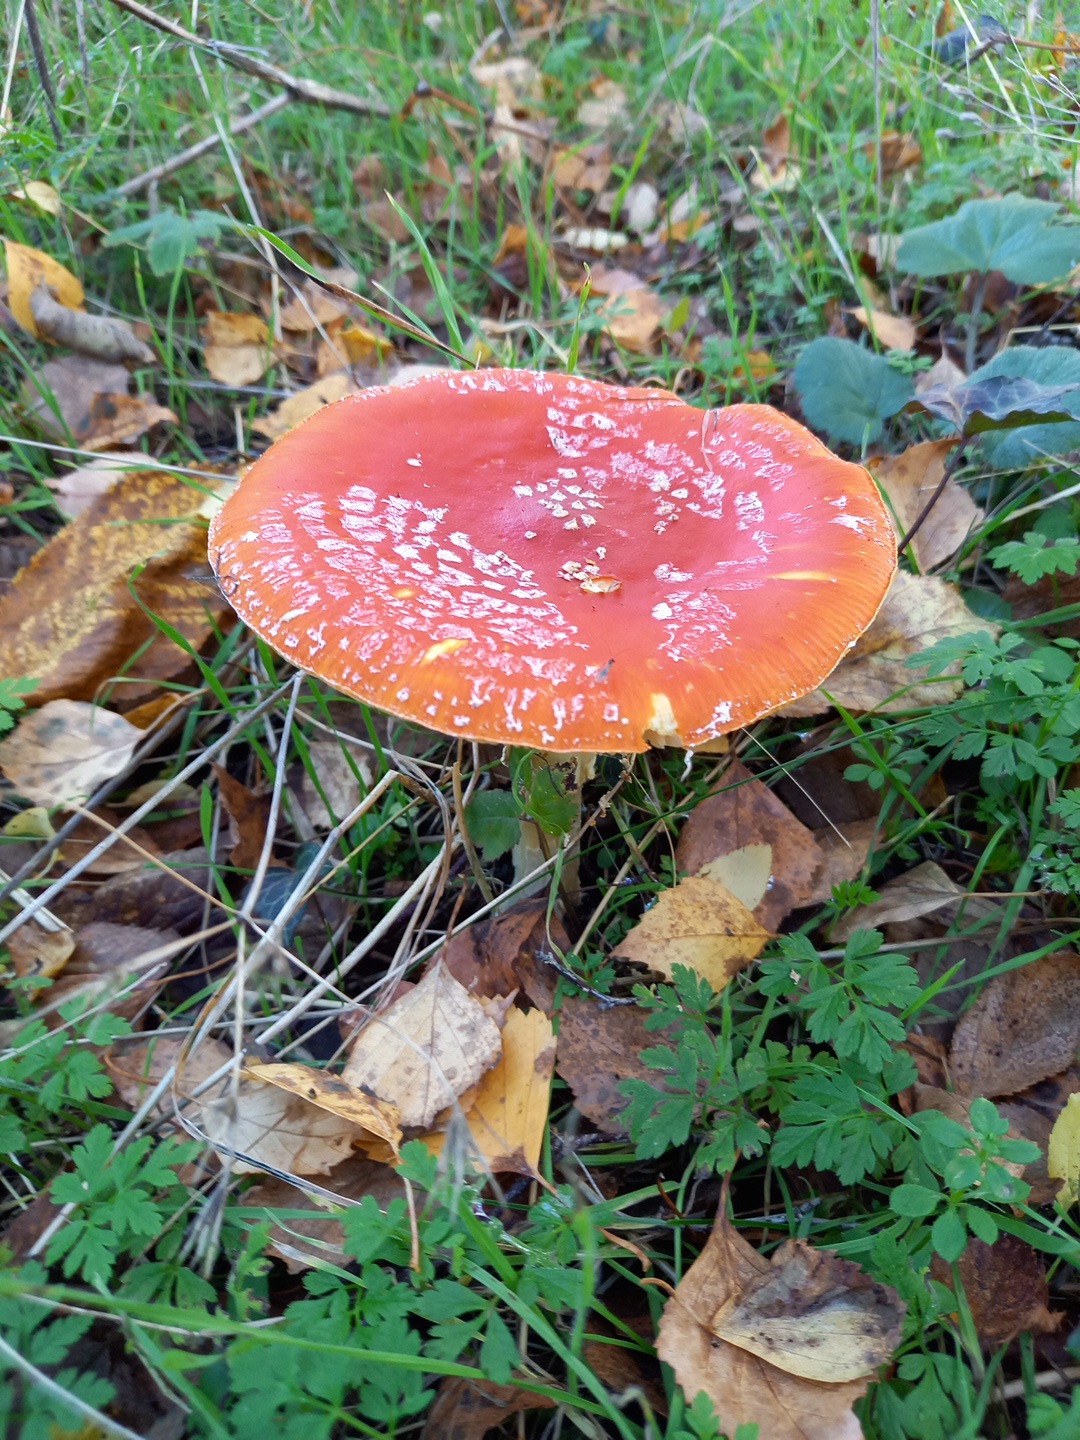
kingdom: Fungi
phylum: Basidiomycota
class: Agaricomycetes
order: Agaricales
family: Amanitaceae
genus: Amanita
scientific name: Amanita muscaria
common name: rød fluesvamp
